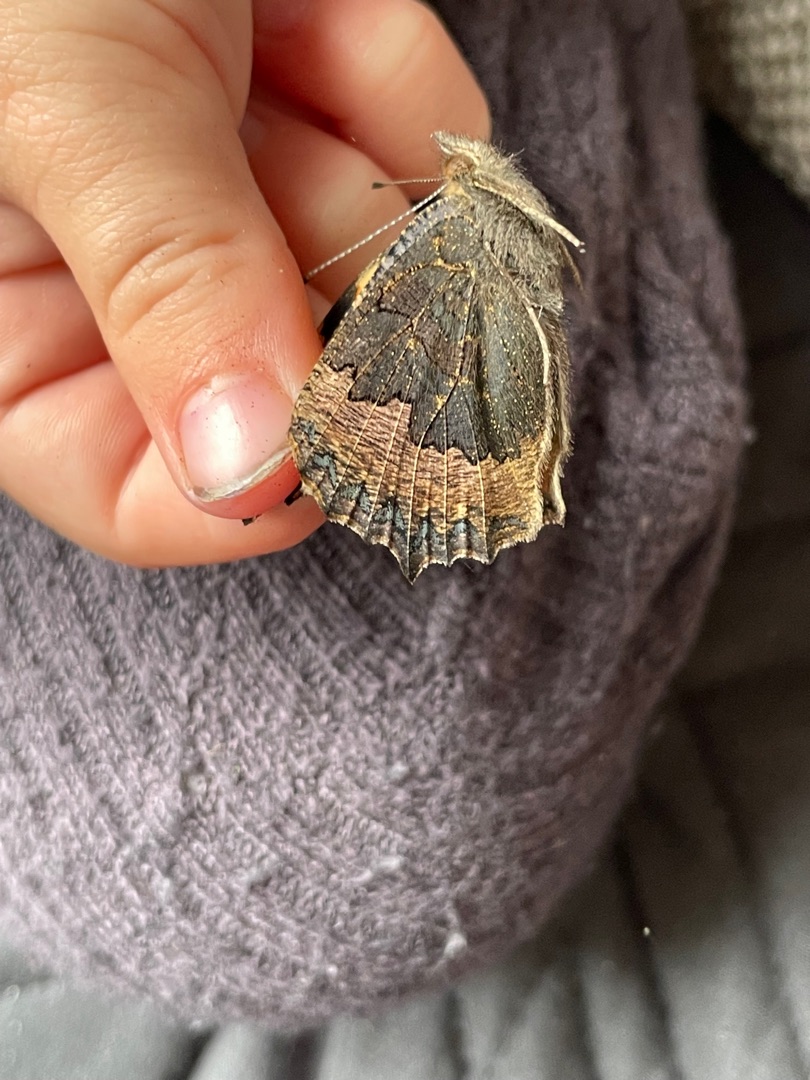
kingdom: Animalia
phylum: Arthropoda
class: Insecta
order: Lepidoptera
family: Nymphalidae
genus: Aglais
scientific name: Aglais urticae
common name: Nældens takvinge
